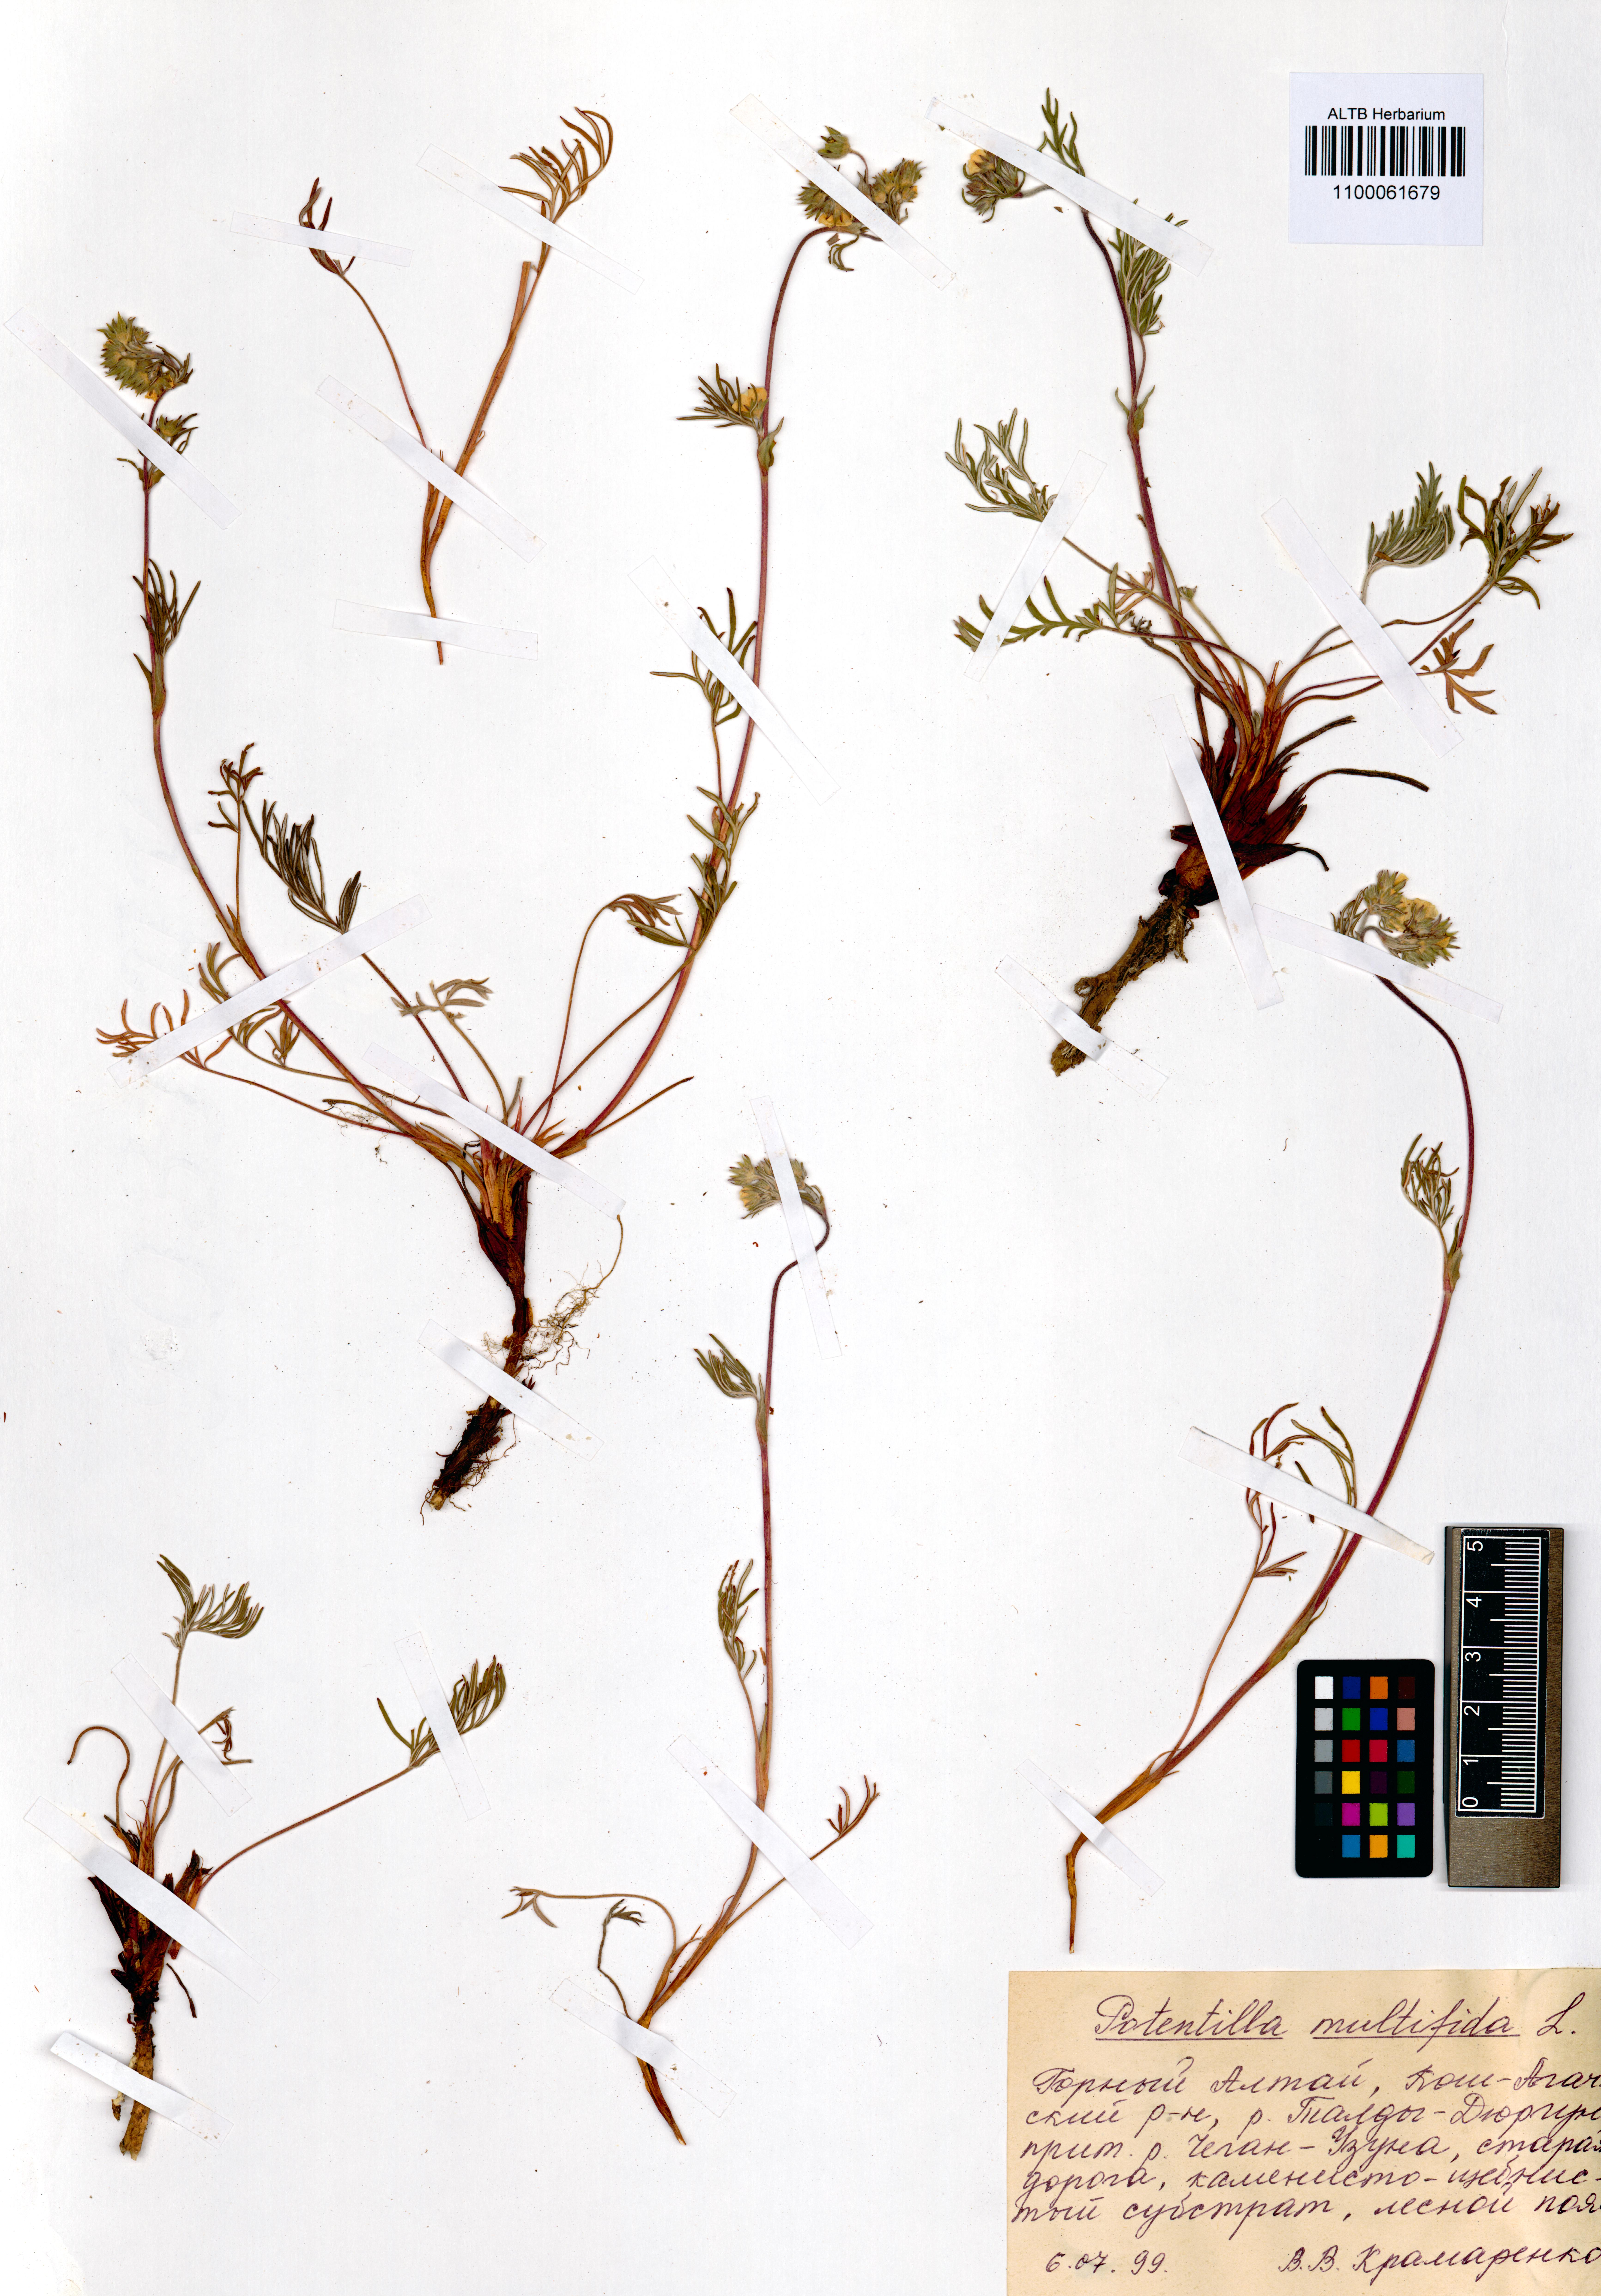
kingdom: Plantae
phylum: Tracheophyta
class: Magnoliopsida
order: Rosales
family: Rosaceae
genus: Potentilla
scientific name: Potentilla multifida
